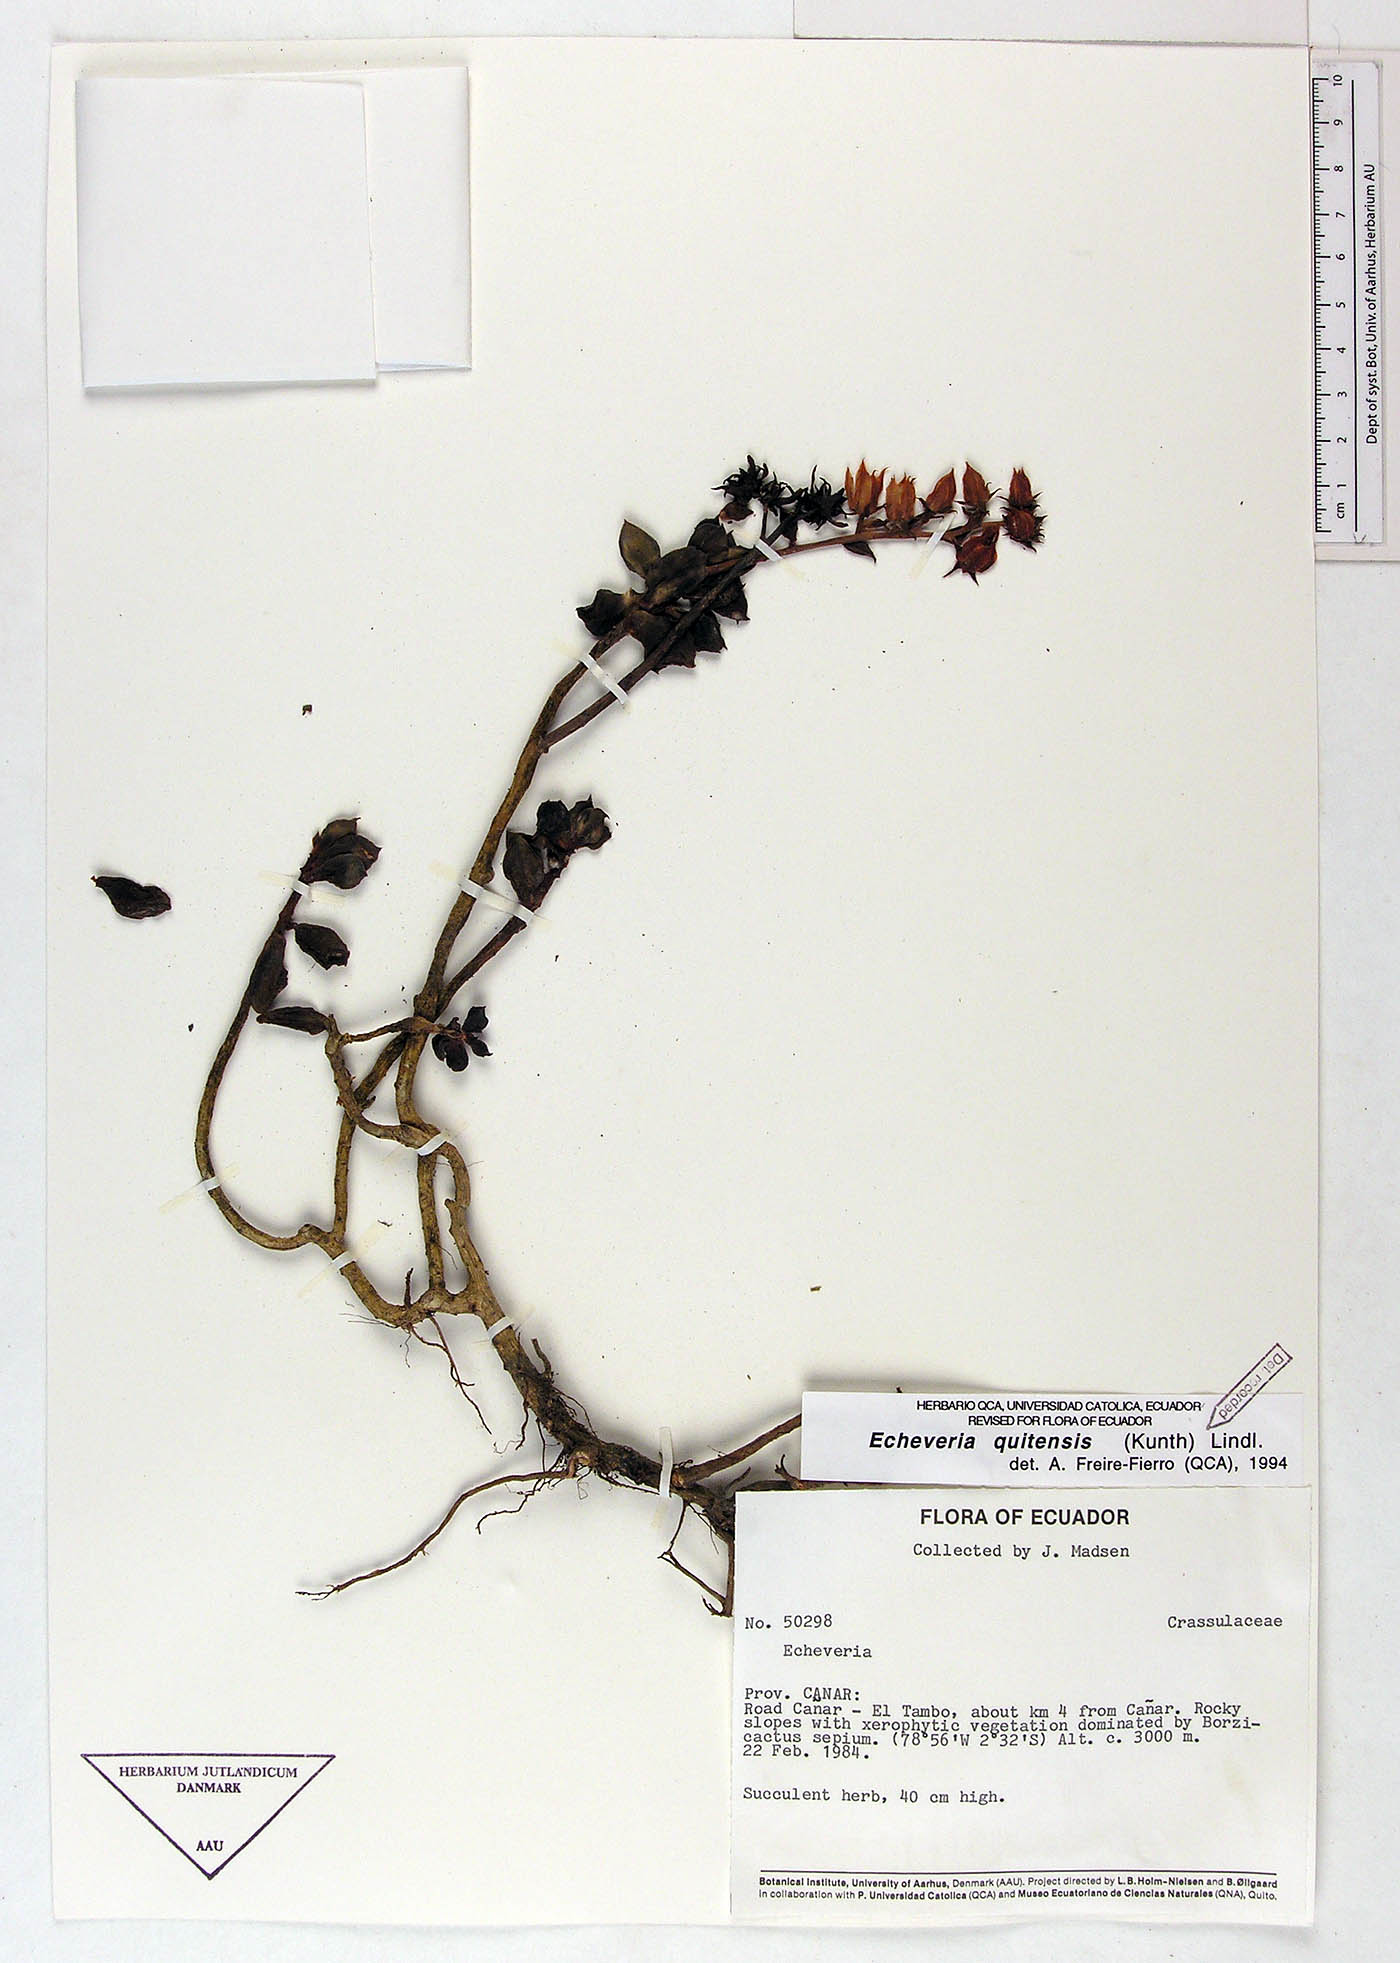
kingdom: Plantae
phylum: Tracheophyta
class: Magnoliopsida
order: Saxifragales
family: Crassulaceae
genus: Echeveria
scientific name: Echeveria quitensis
